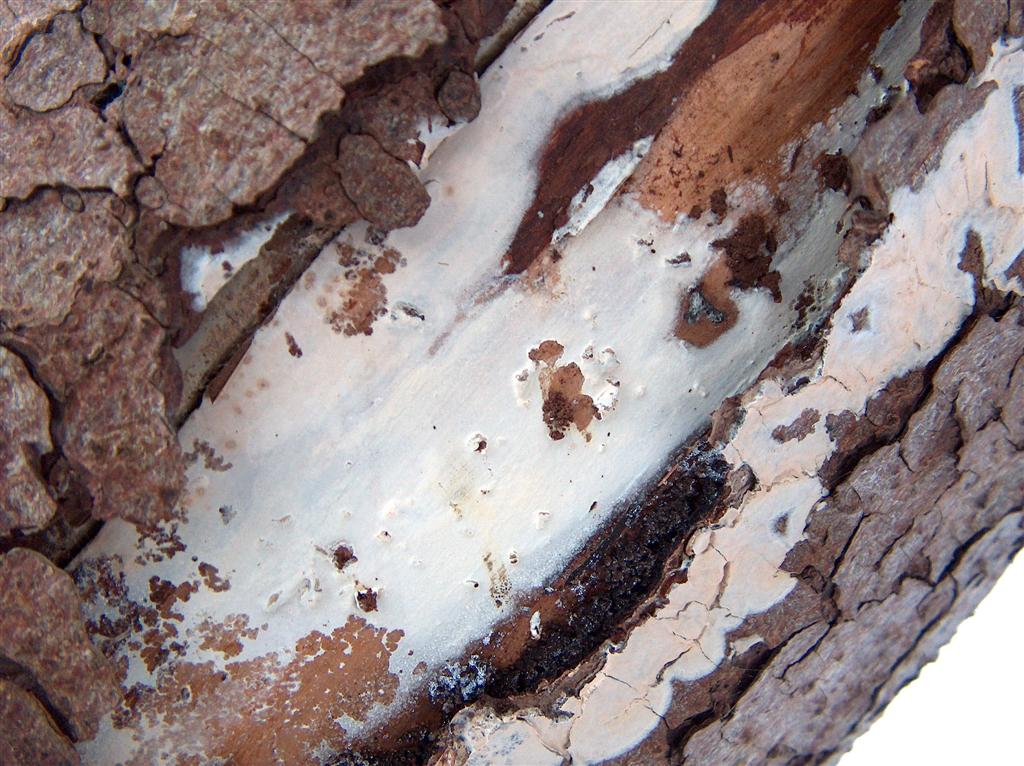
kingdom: Fungi
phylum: Basidiomycota
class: Agaricomycetes
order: Agaricales
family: Radulomycetaceae
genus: Radulomyces
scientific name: Radulomyces confluens
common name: glat naftalinskind
